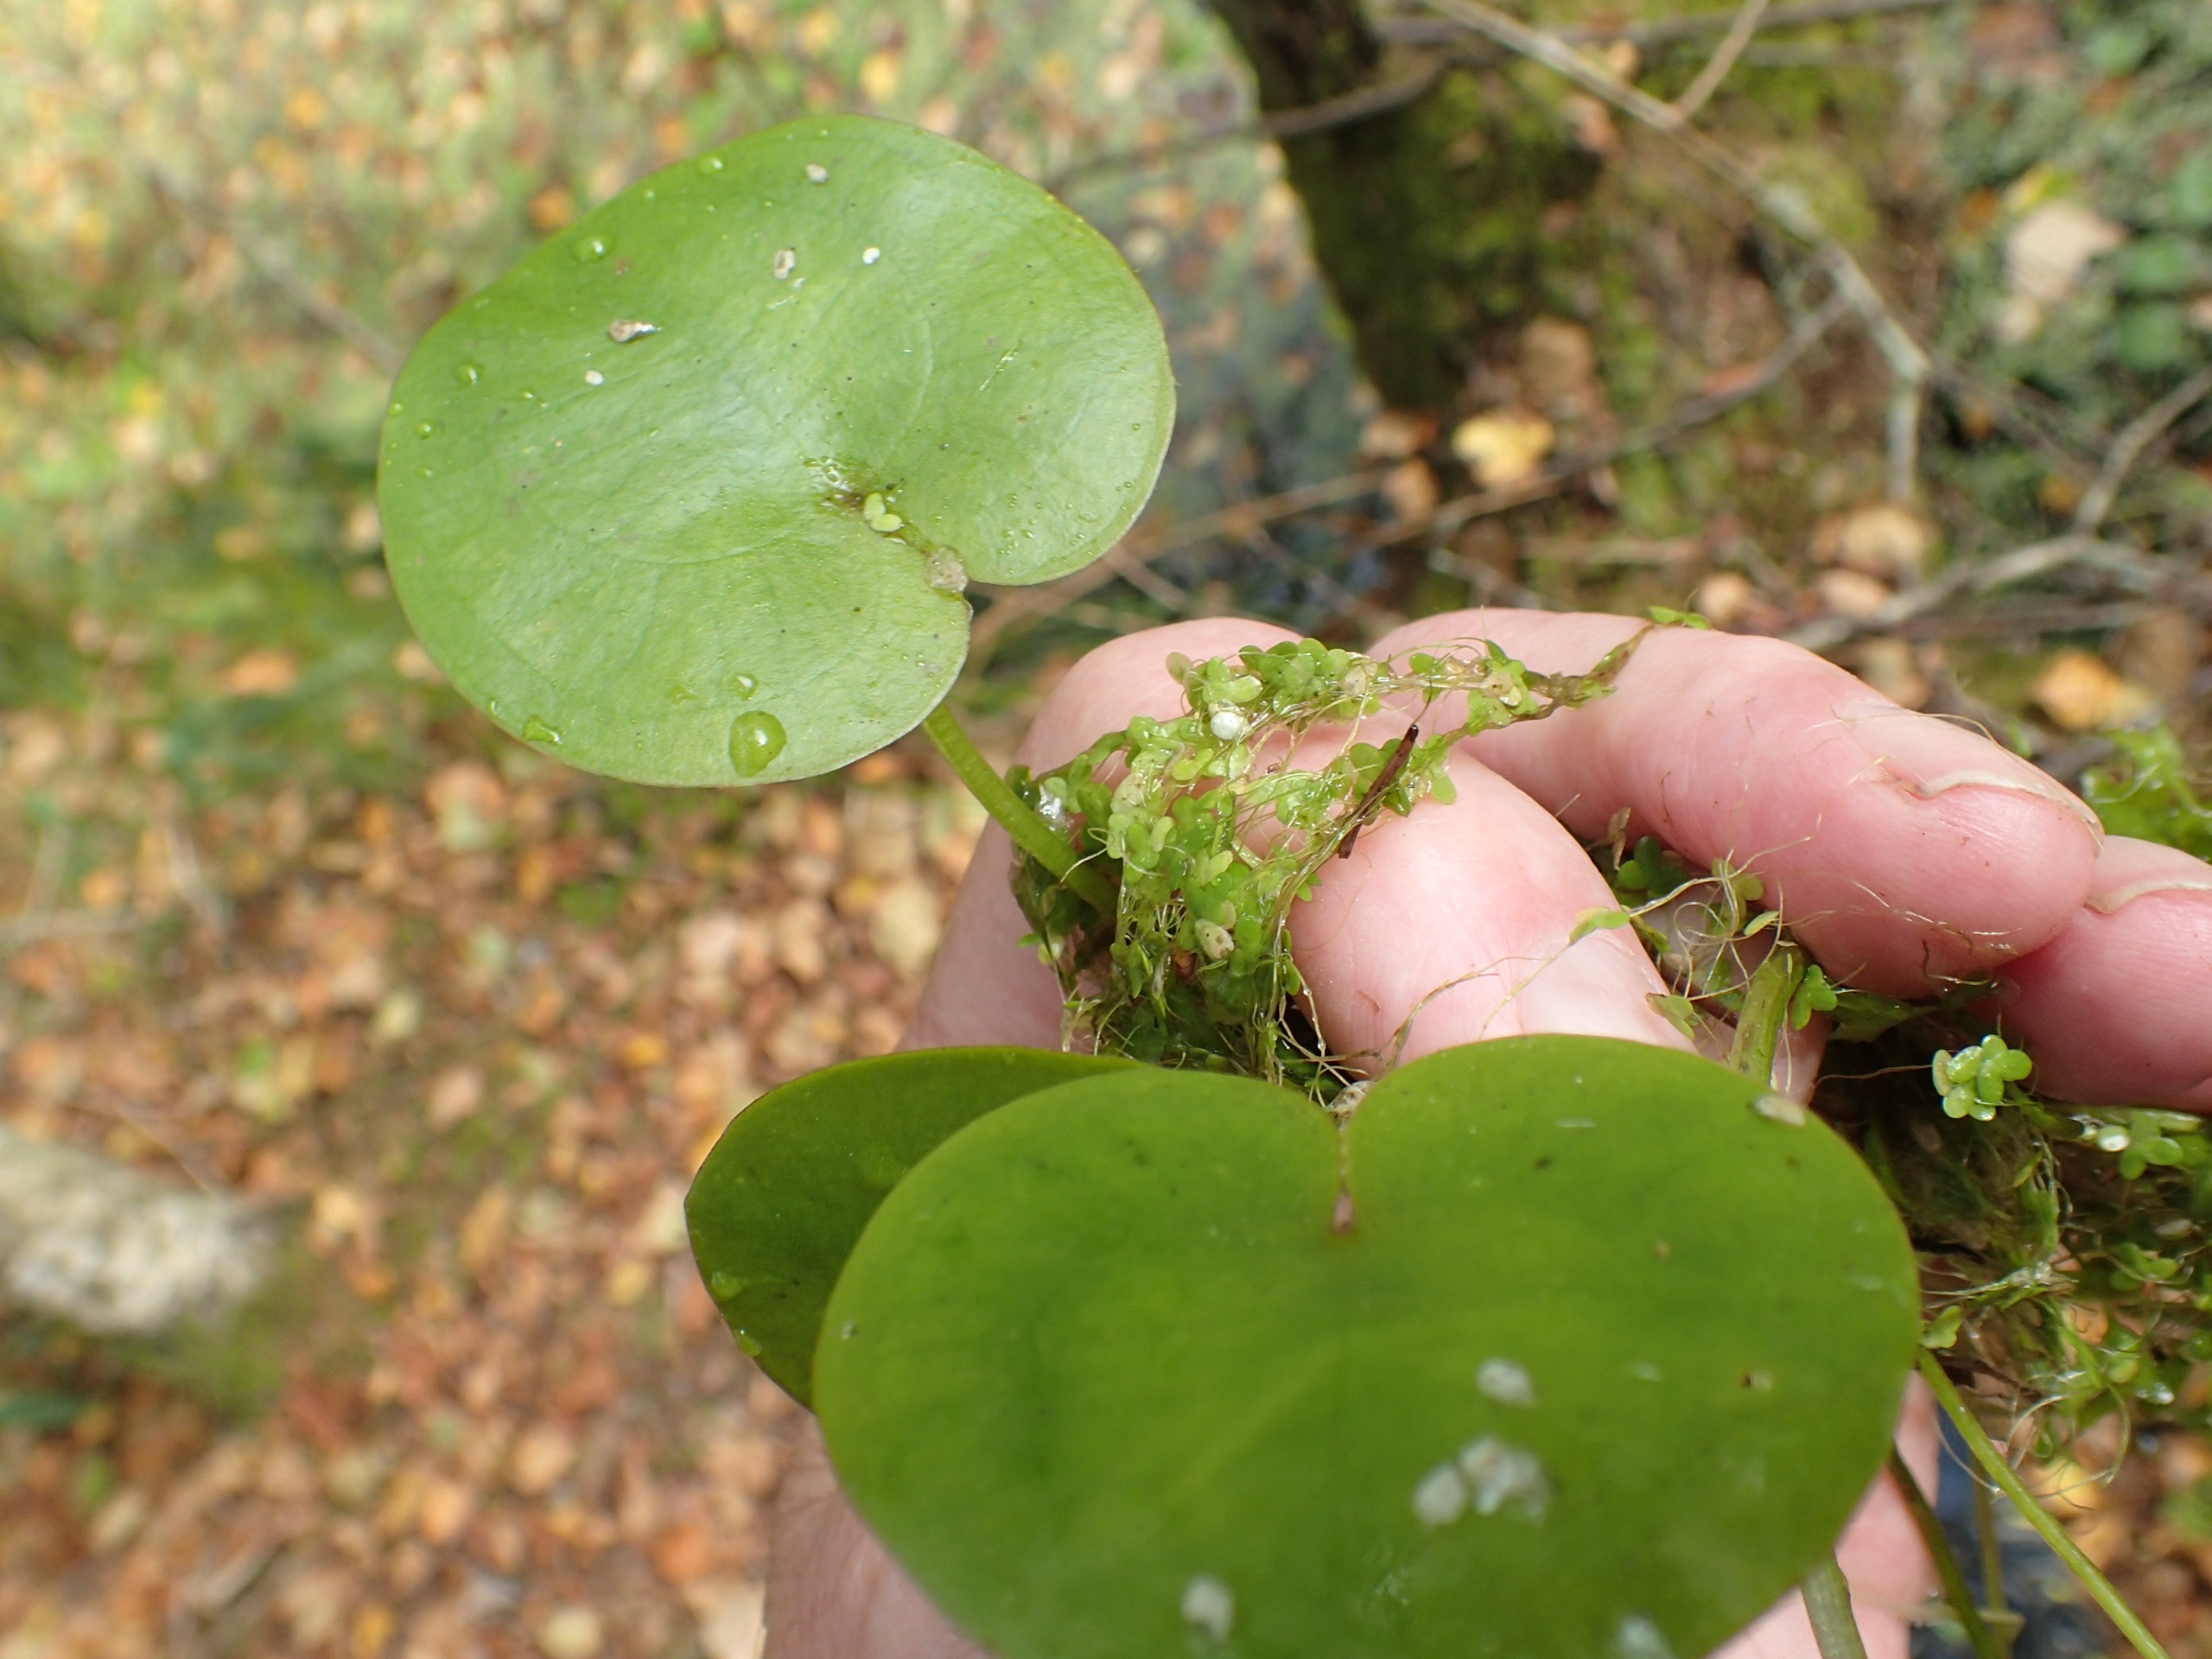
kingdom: Plantae
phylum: Tracheophyta
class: Liliopsida
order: Alismatales
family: Hydrocharitaceae
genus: Hydrocharis
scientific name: Hydrocharis morsus-ranae
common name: Frøbid
